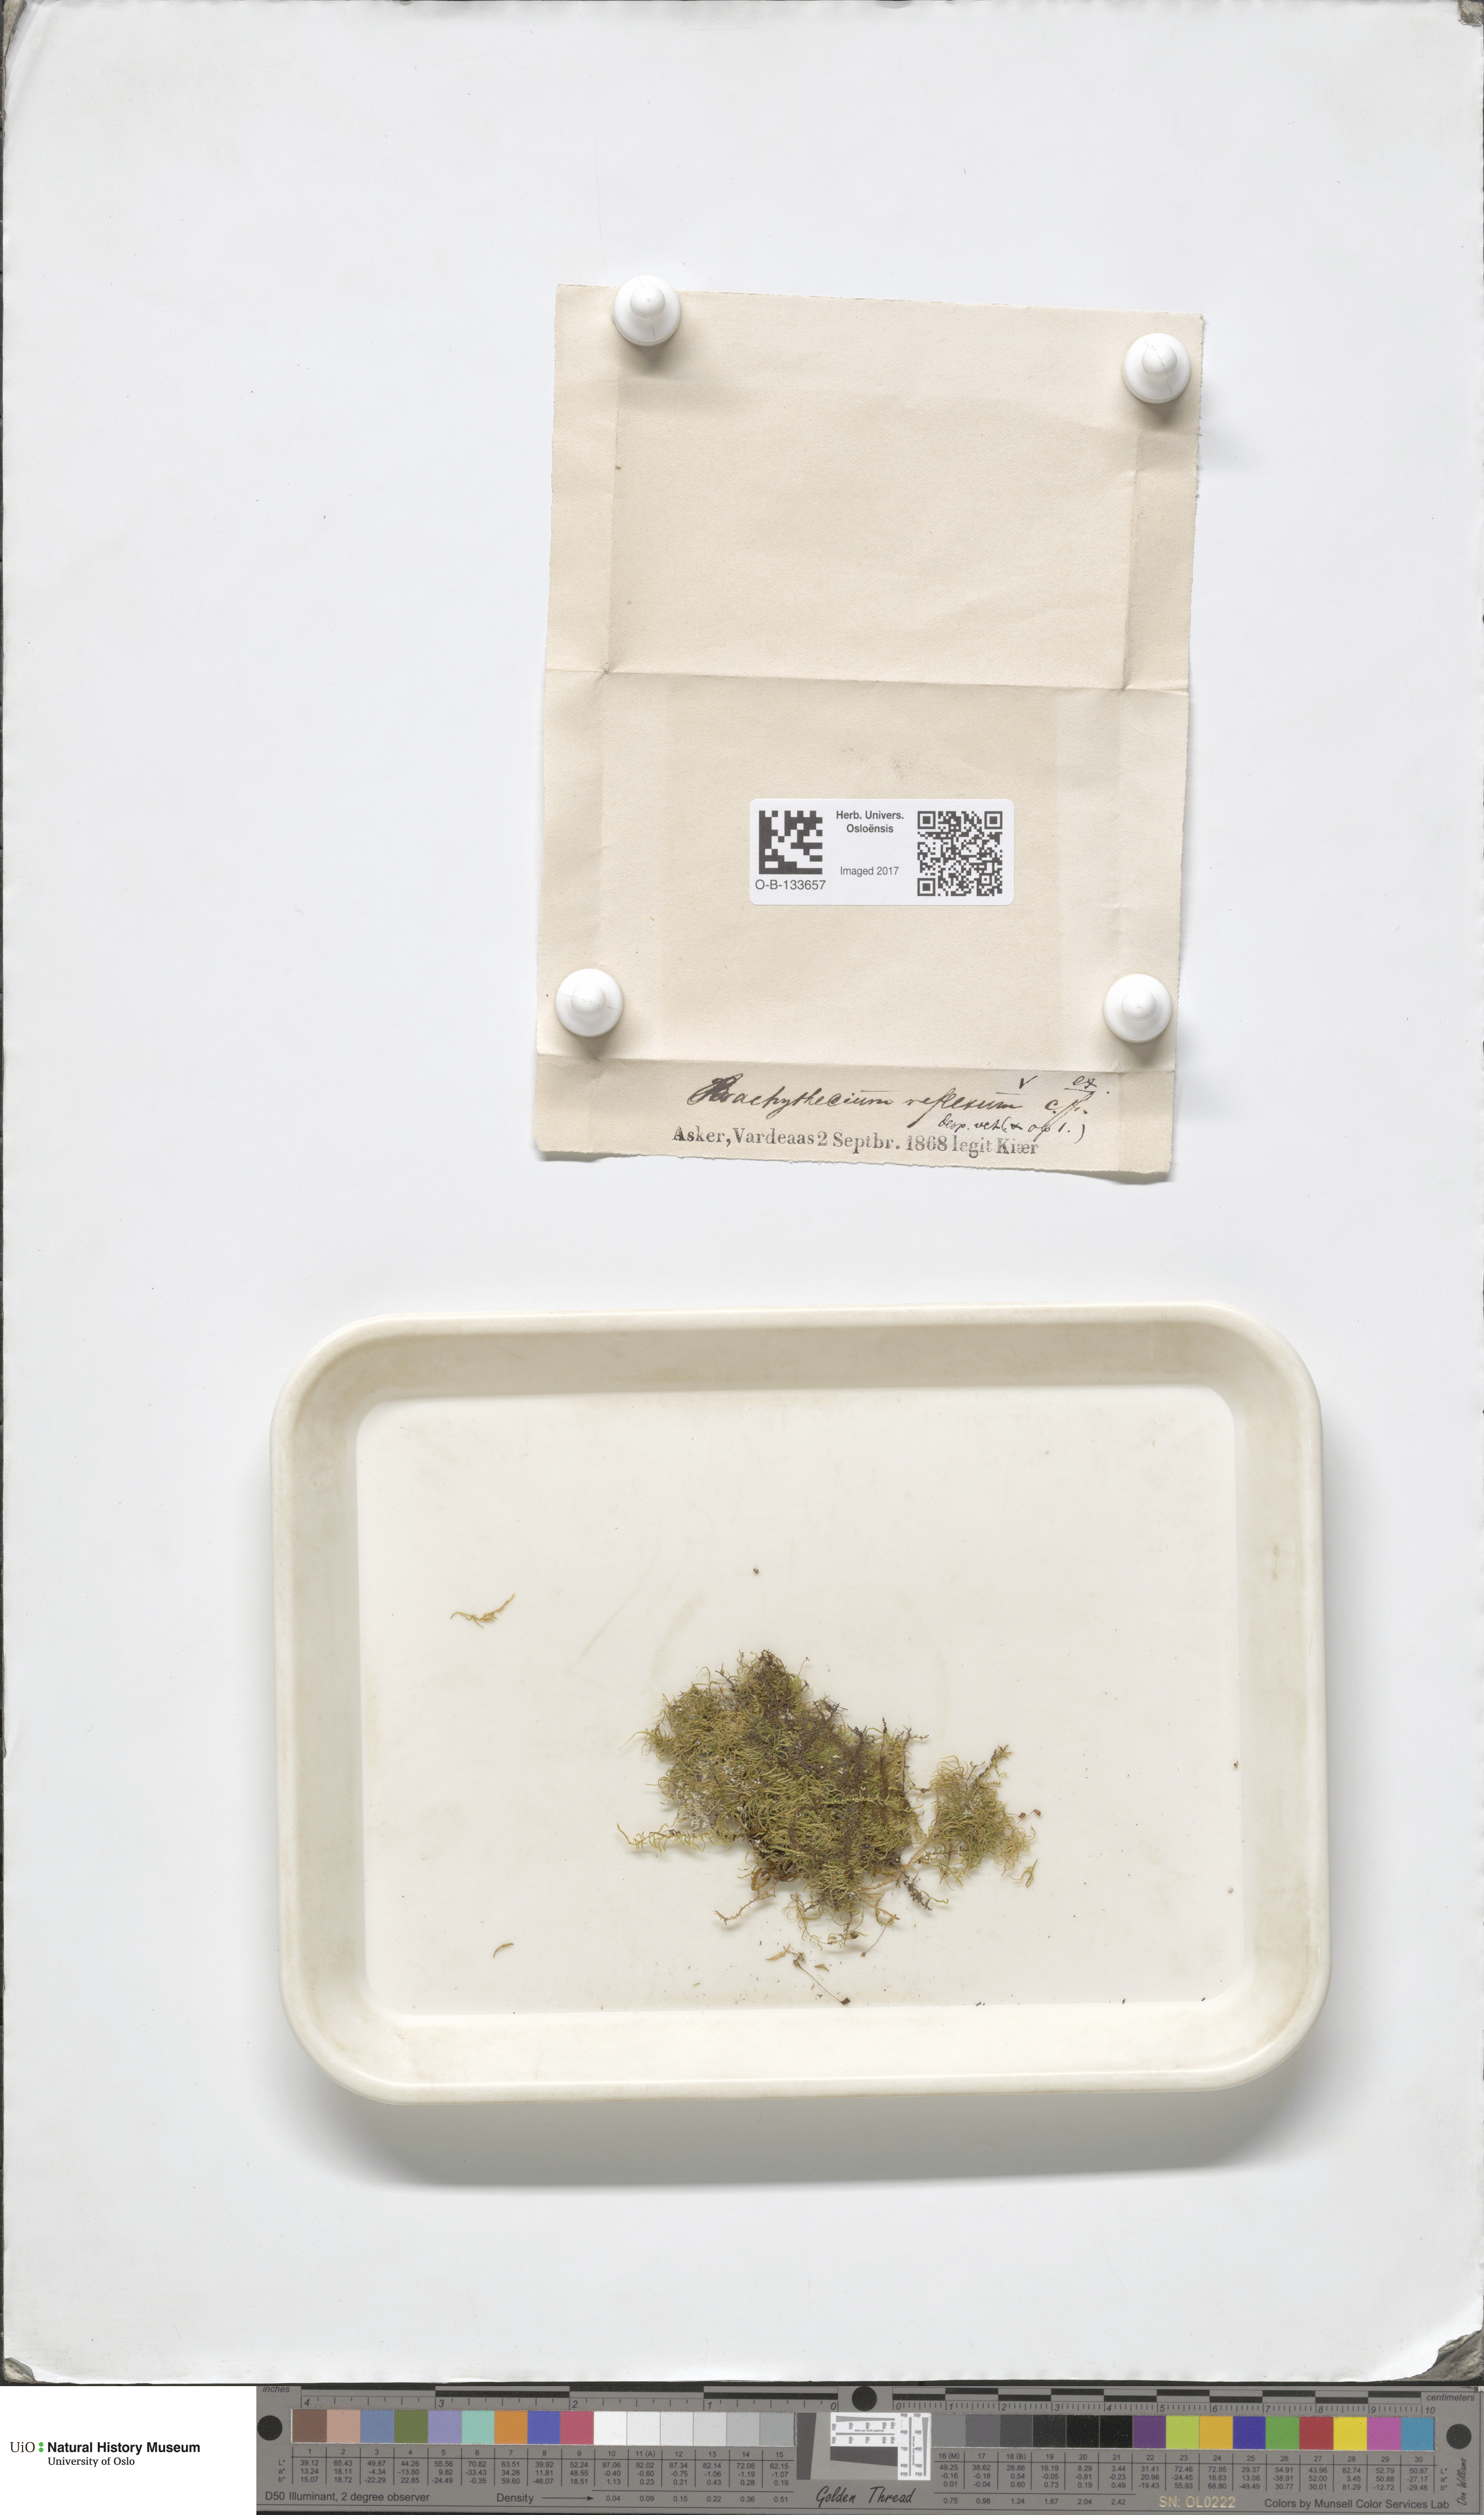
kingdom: Plantae
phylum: Bryophyta
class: Bryopsida
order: Hypnales
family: Brachytheciaceae
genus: Sciuro-hypnum
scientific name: Sciuro-hypnum reflexum
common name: Reflexed feather-moss
